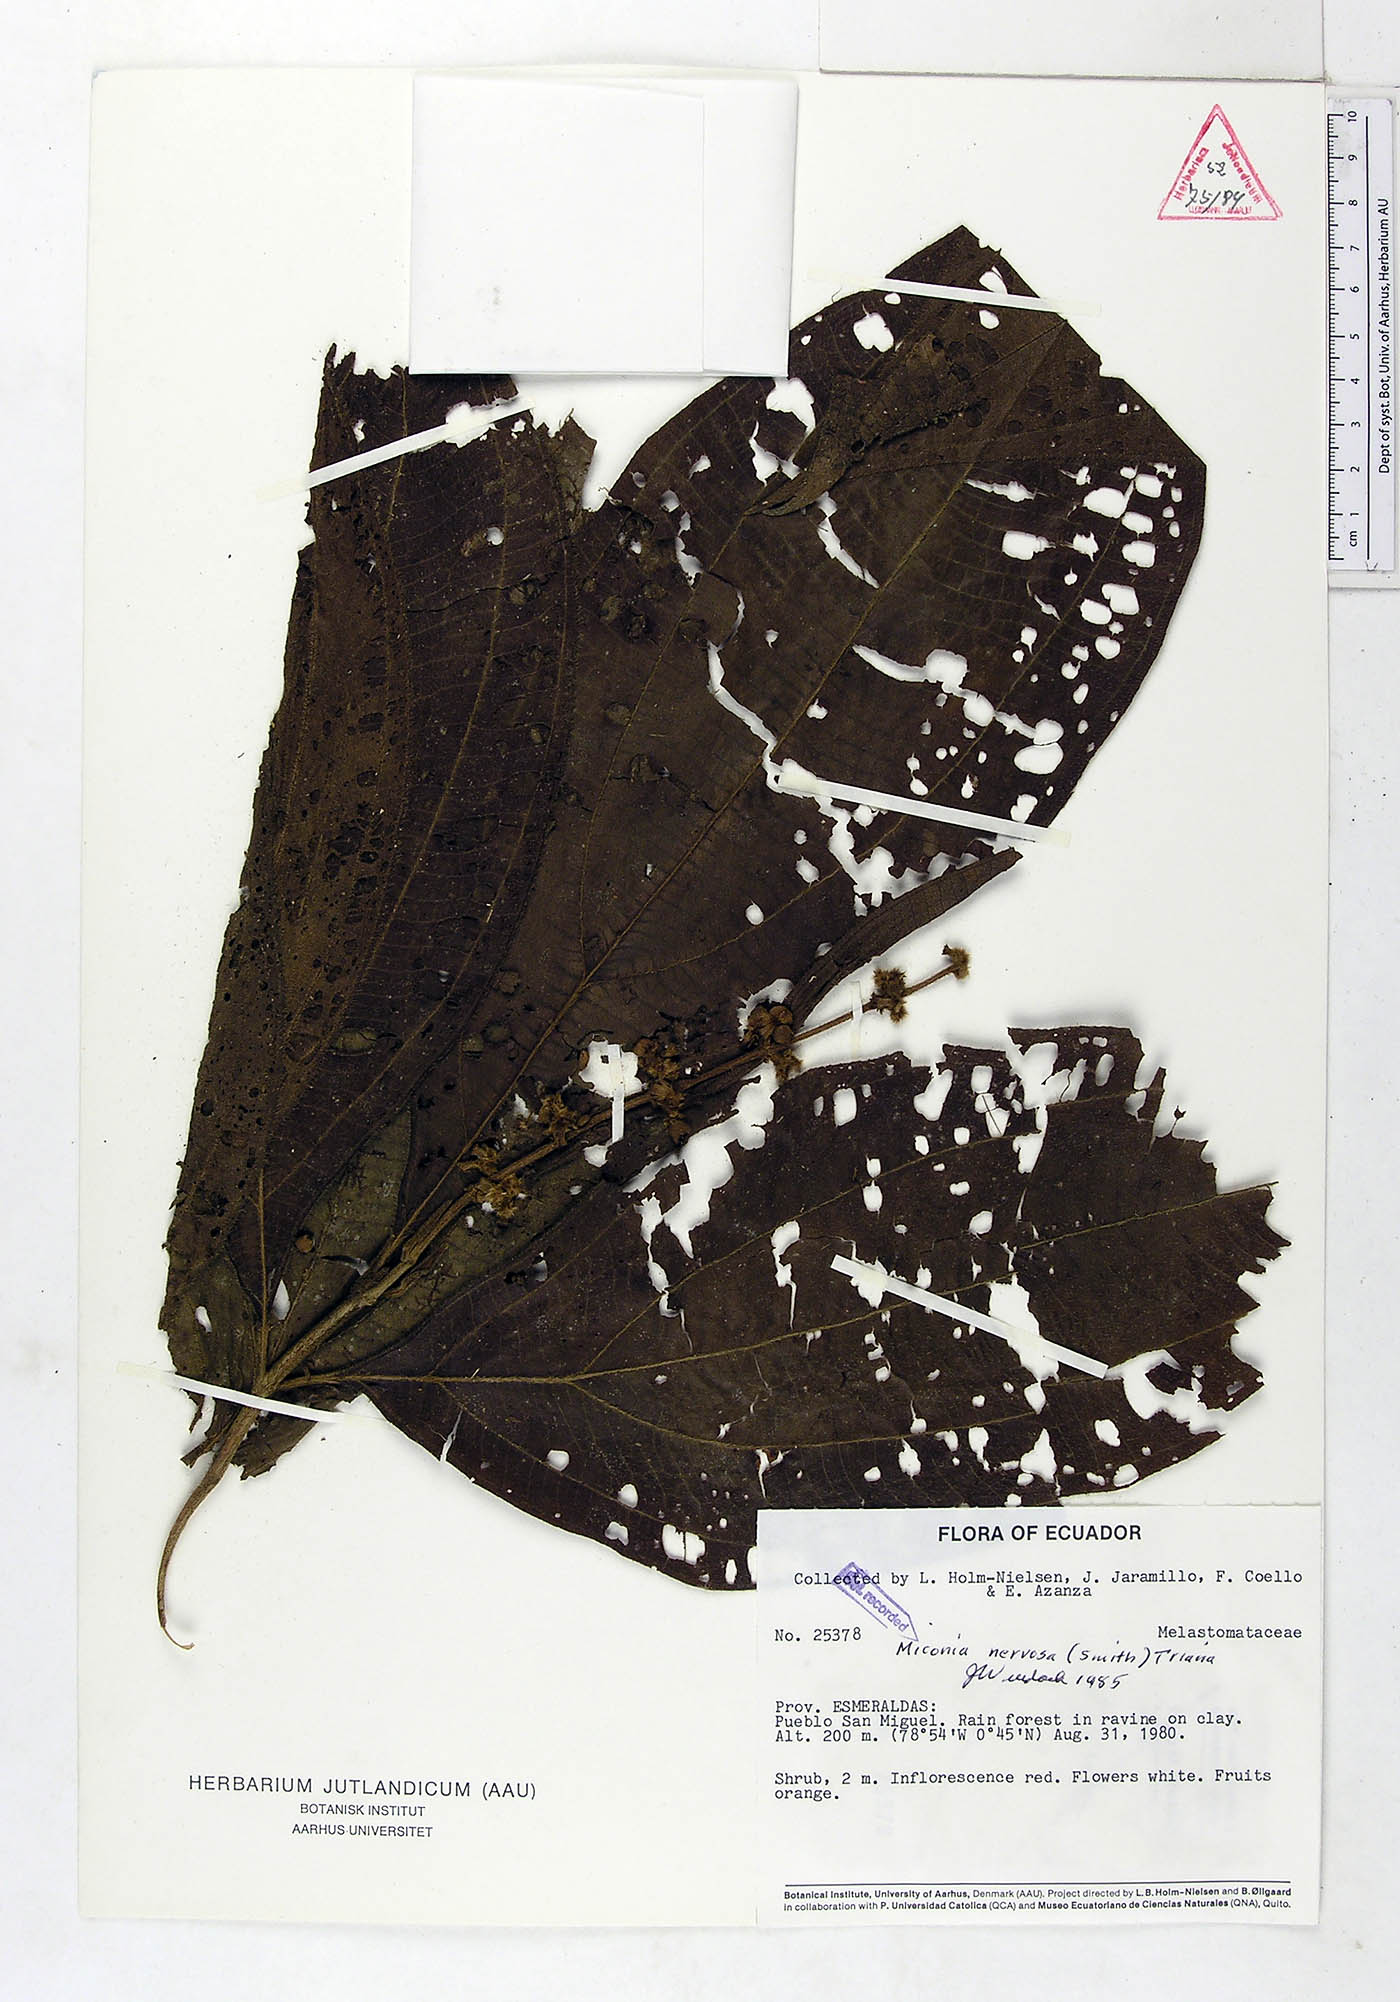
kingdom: Plantae
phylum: Tracheophyta
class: Magnoliopsida
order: Myrtales
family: Melastomataceae
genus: Miconia
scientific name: Miconia nervosa
